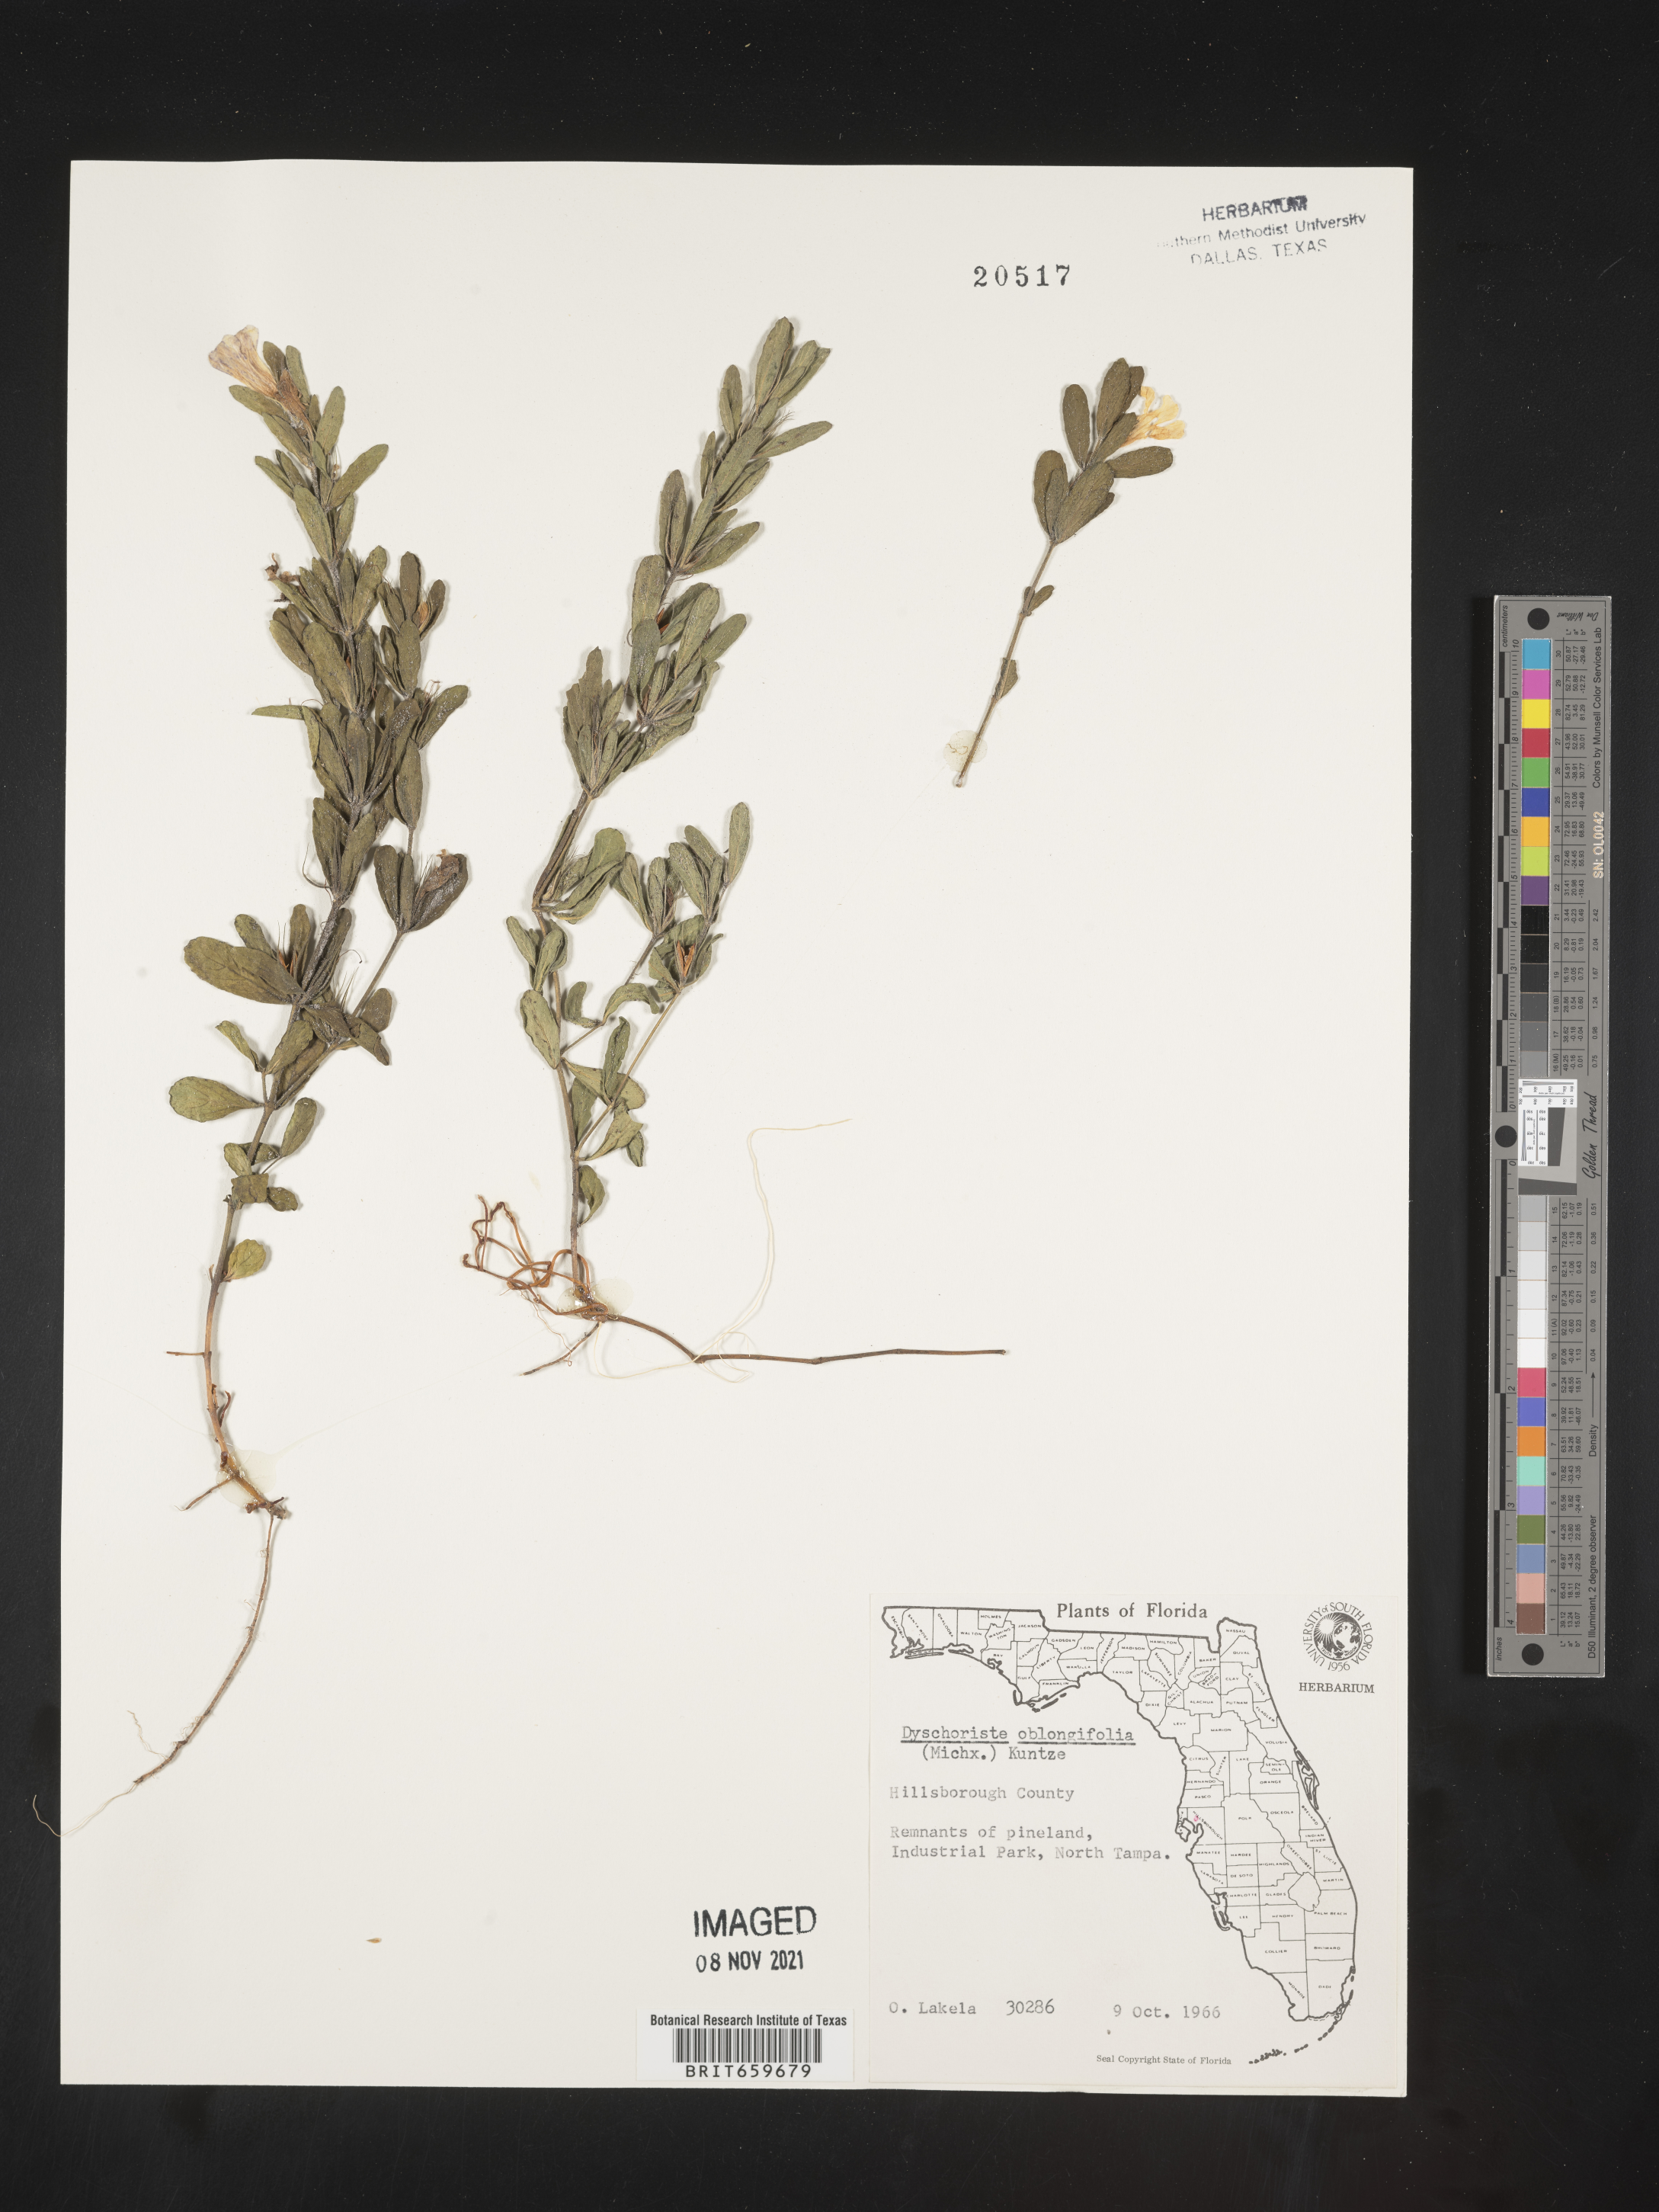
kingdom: Plantae
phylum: Tracheophyta
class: Magnoliopsida
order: Lamiales
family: Acanthaceae
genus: Dyschoriste
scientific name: Dyschoriste oblongifolia
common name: Blue twinflower
